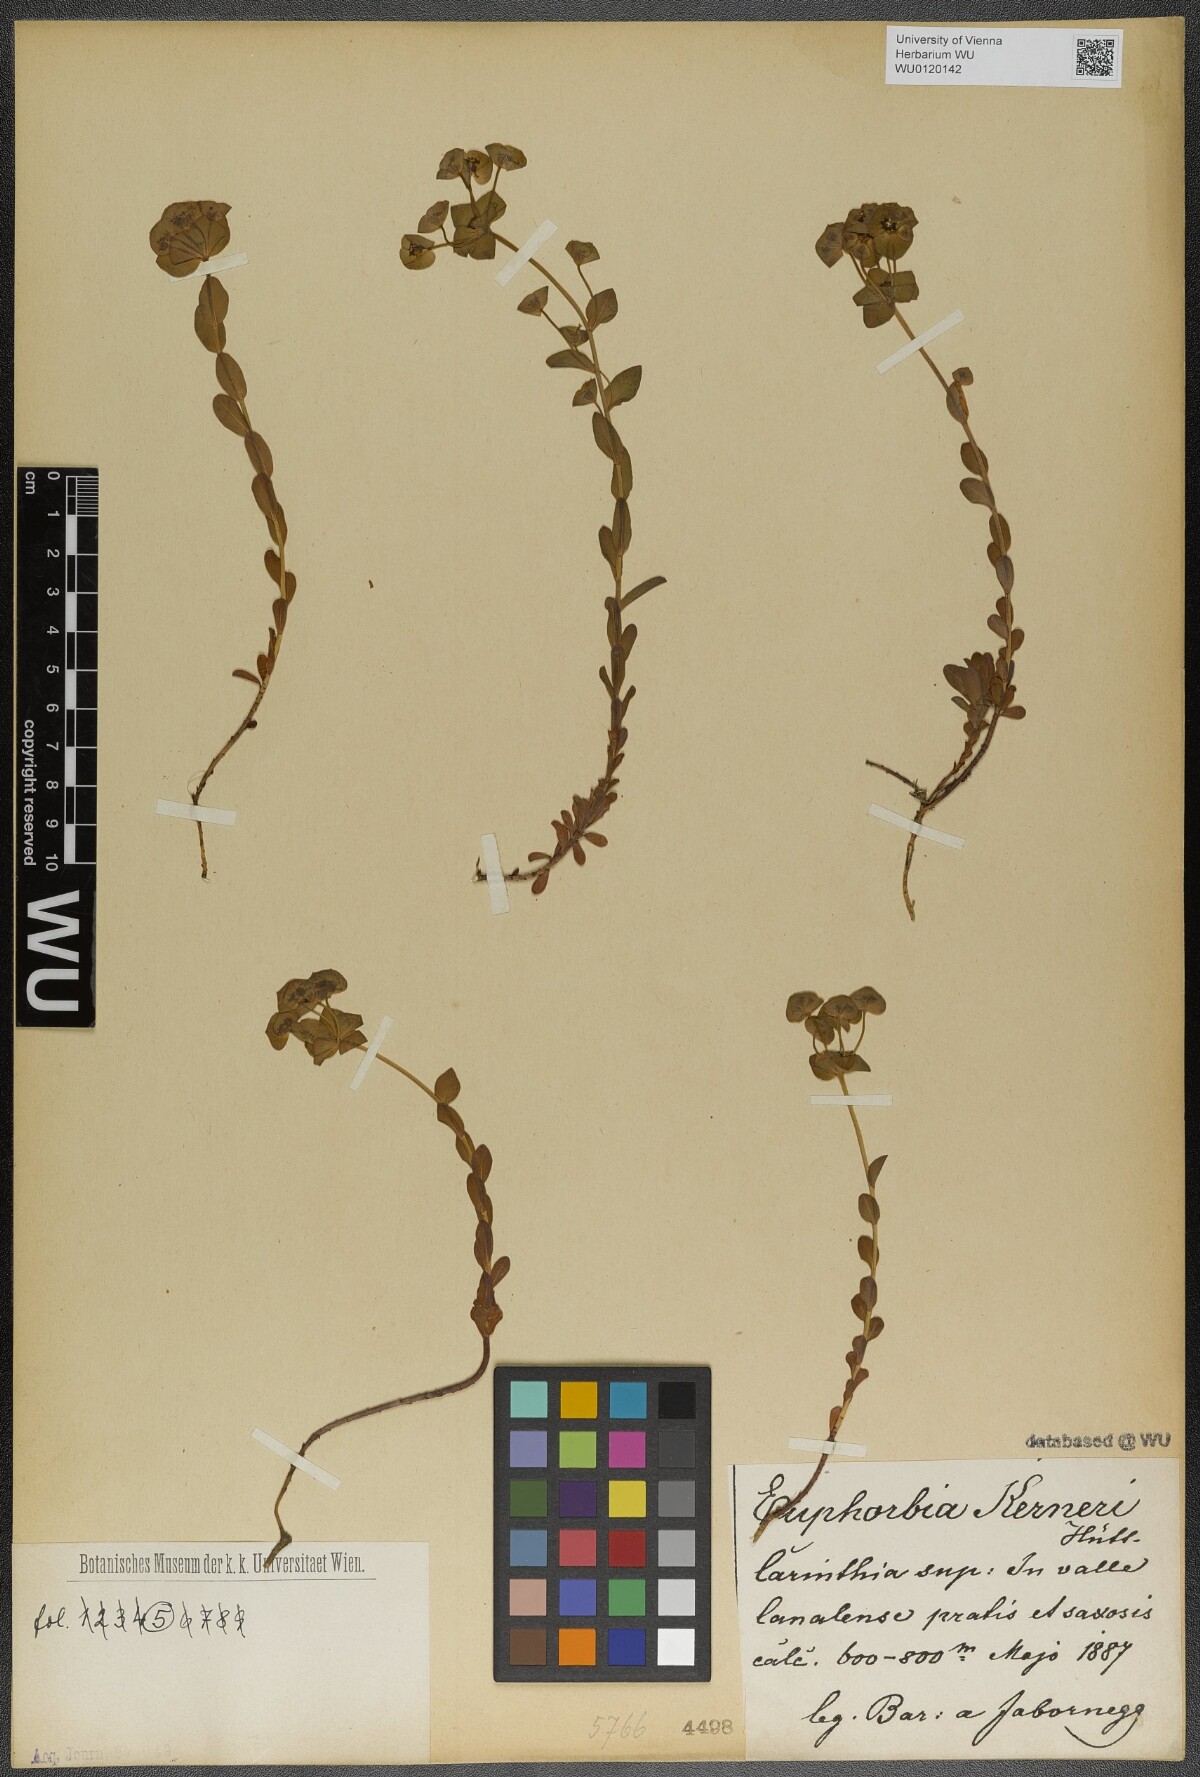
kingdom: Plantae
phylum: Tracheophyta
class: Magnoliopsida
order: Malpighiales
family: Euphorbiaceae
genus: Euphorbia
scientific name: Euphorbia kerneri
